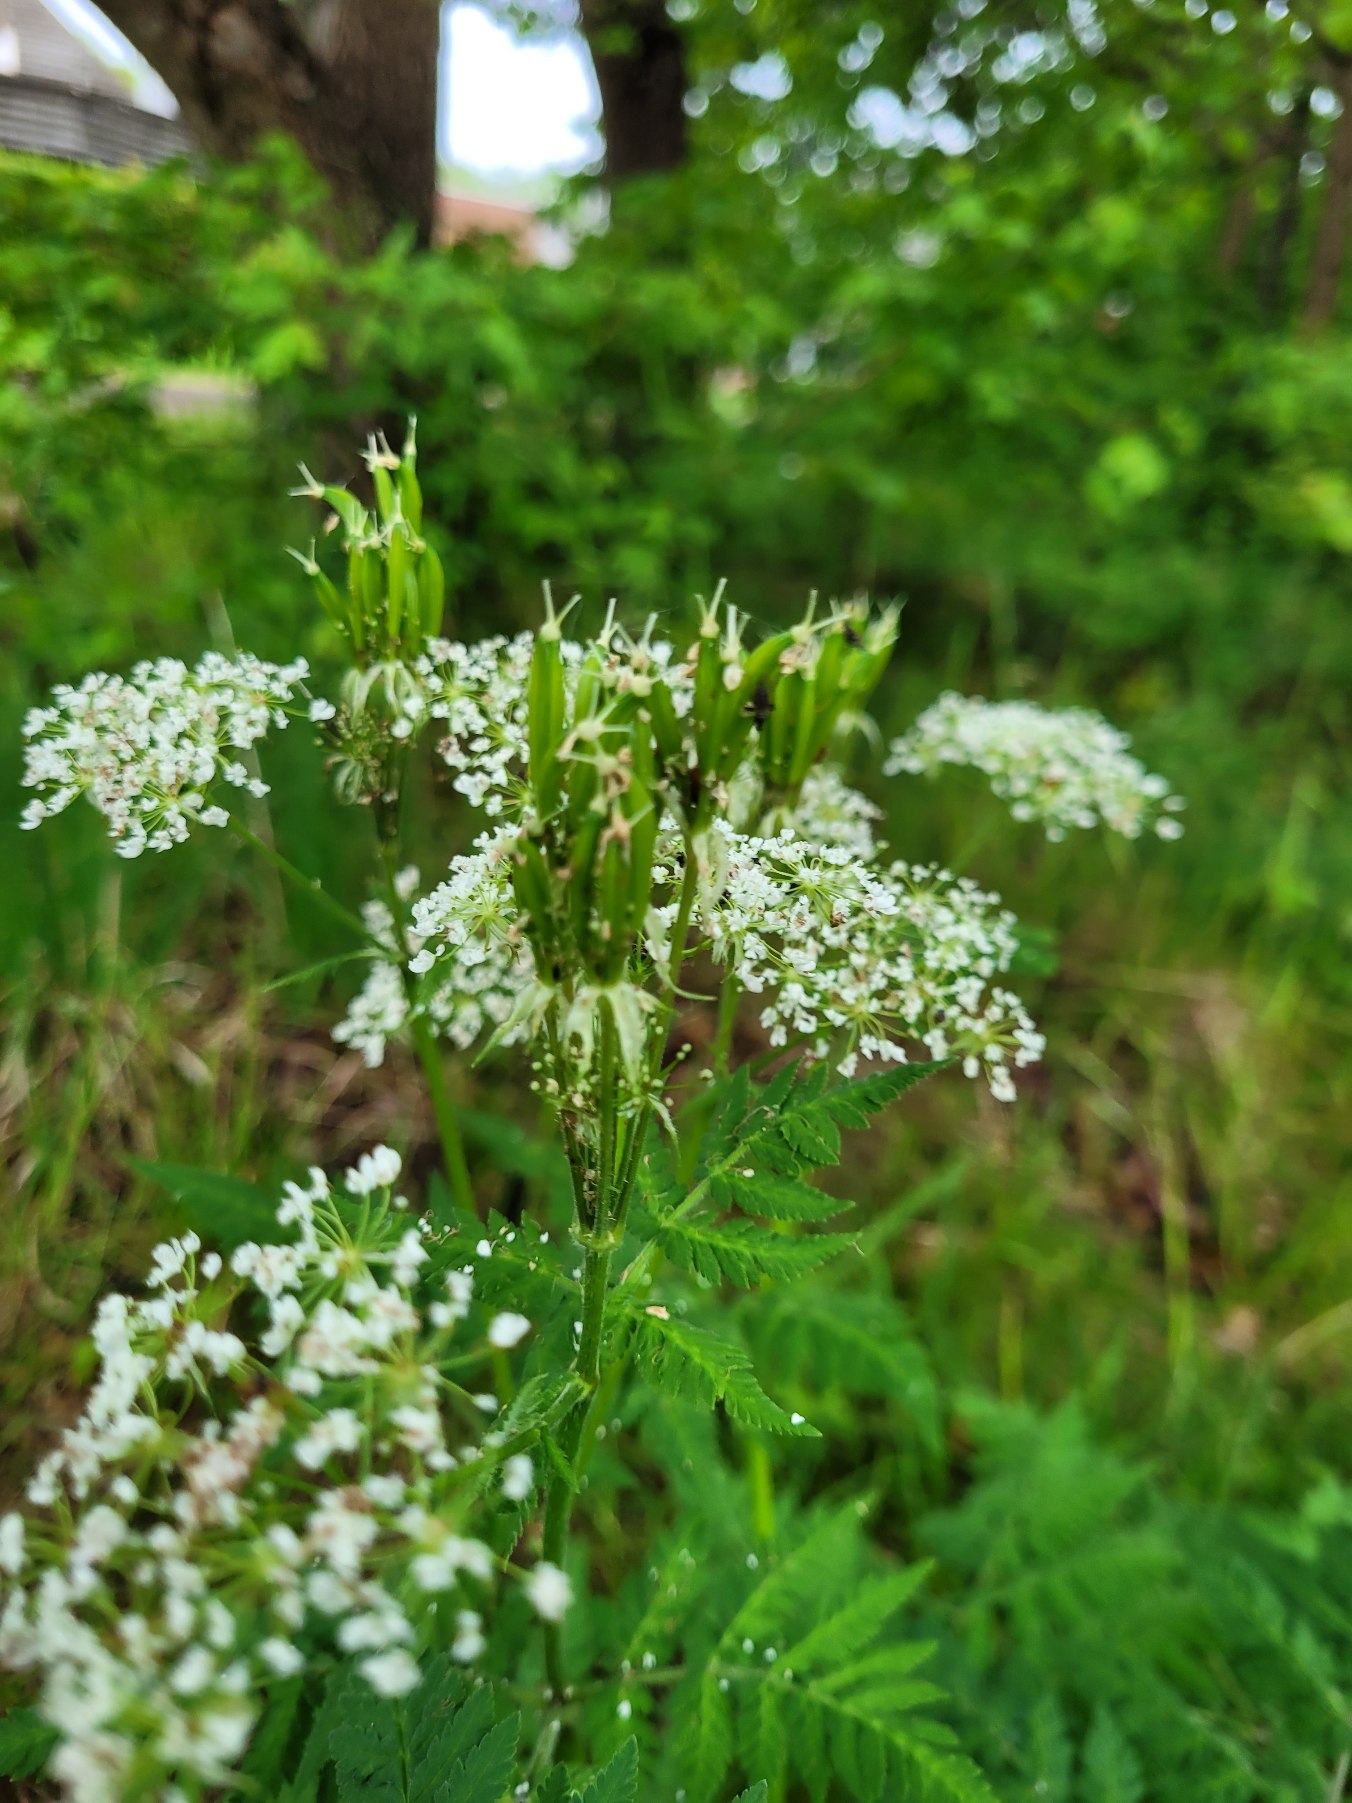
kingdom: Plantae
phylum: Tracheophyta
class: Magnoliopsida
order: Apiales
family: Apiaceae
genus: Myrrhis
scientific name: Myrrhis odorata
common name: Sødskærm
